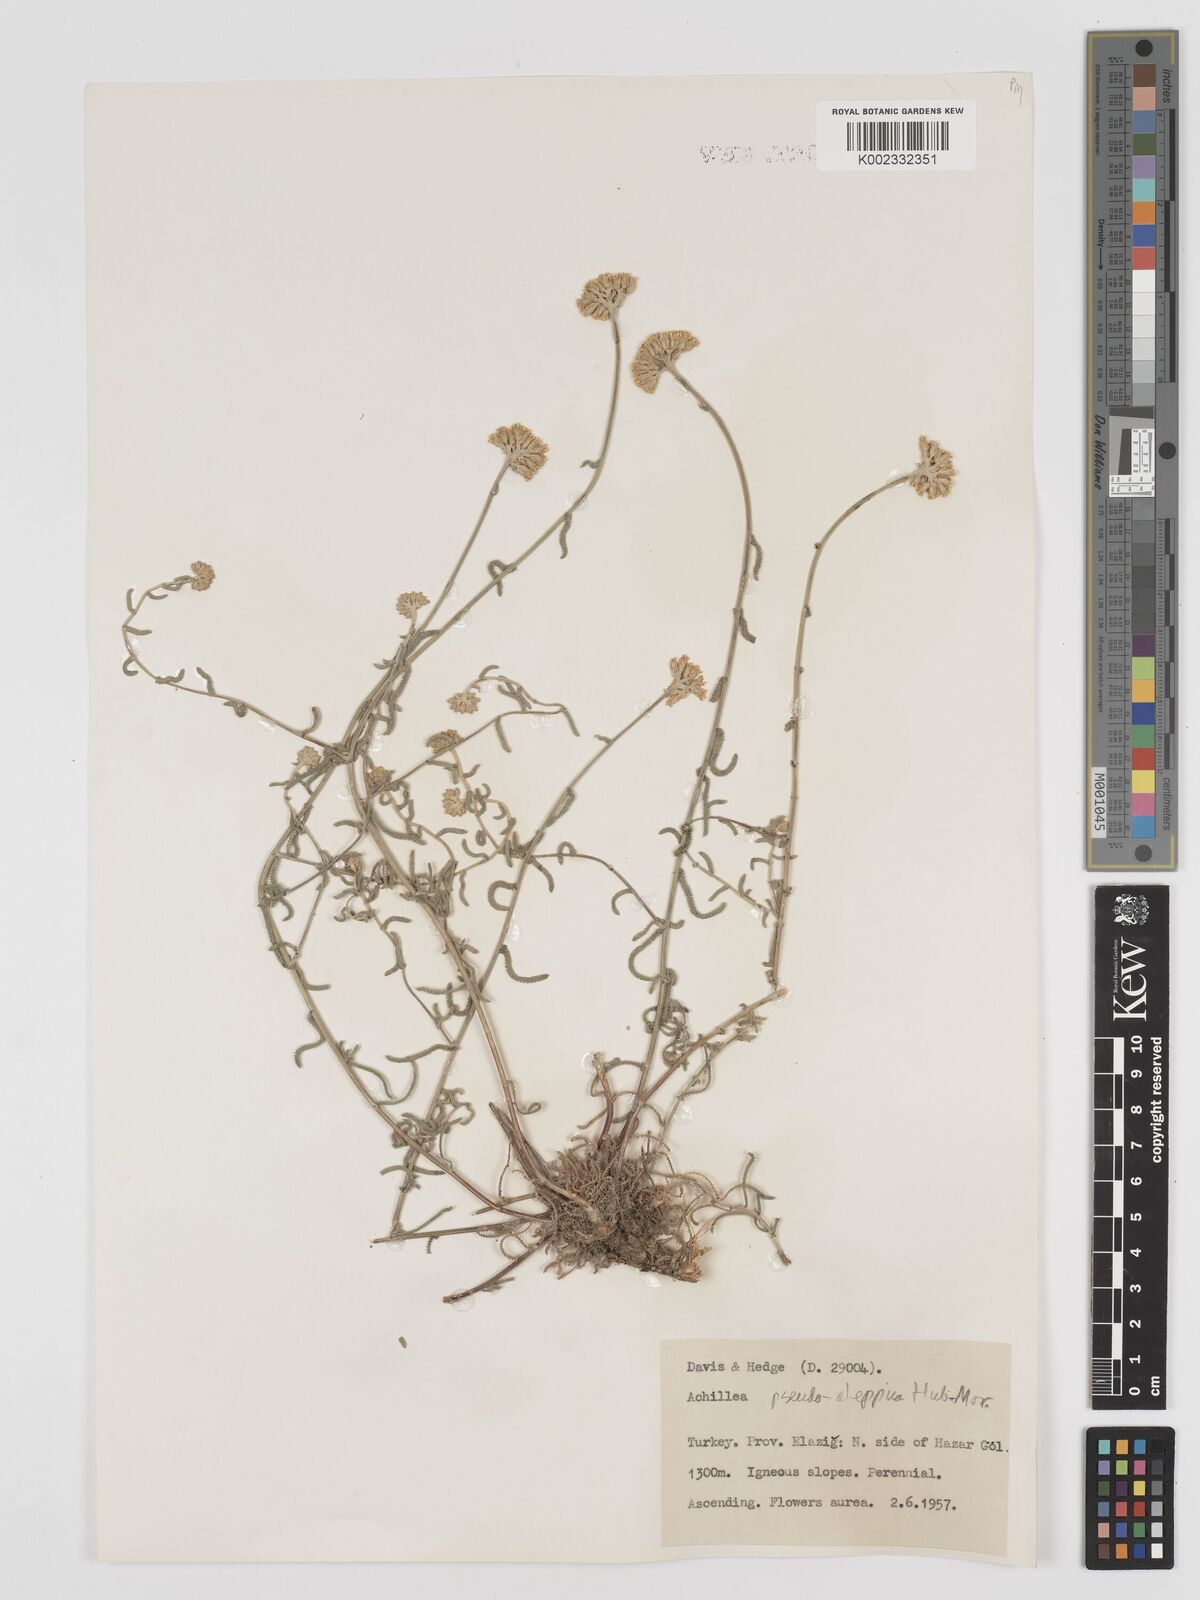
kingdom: Plantae
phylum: Tracheophyta
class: Magnoliopsida
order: Asterales
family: Asteraceae
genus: Achillea
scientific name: Achillea pseudoaleppica
